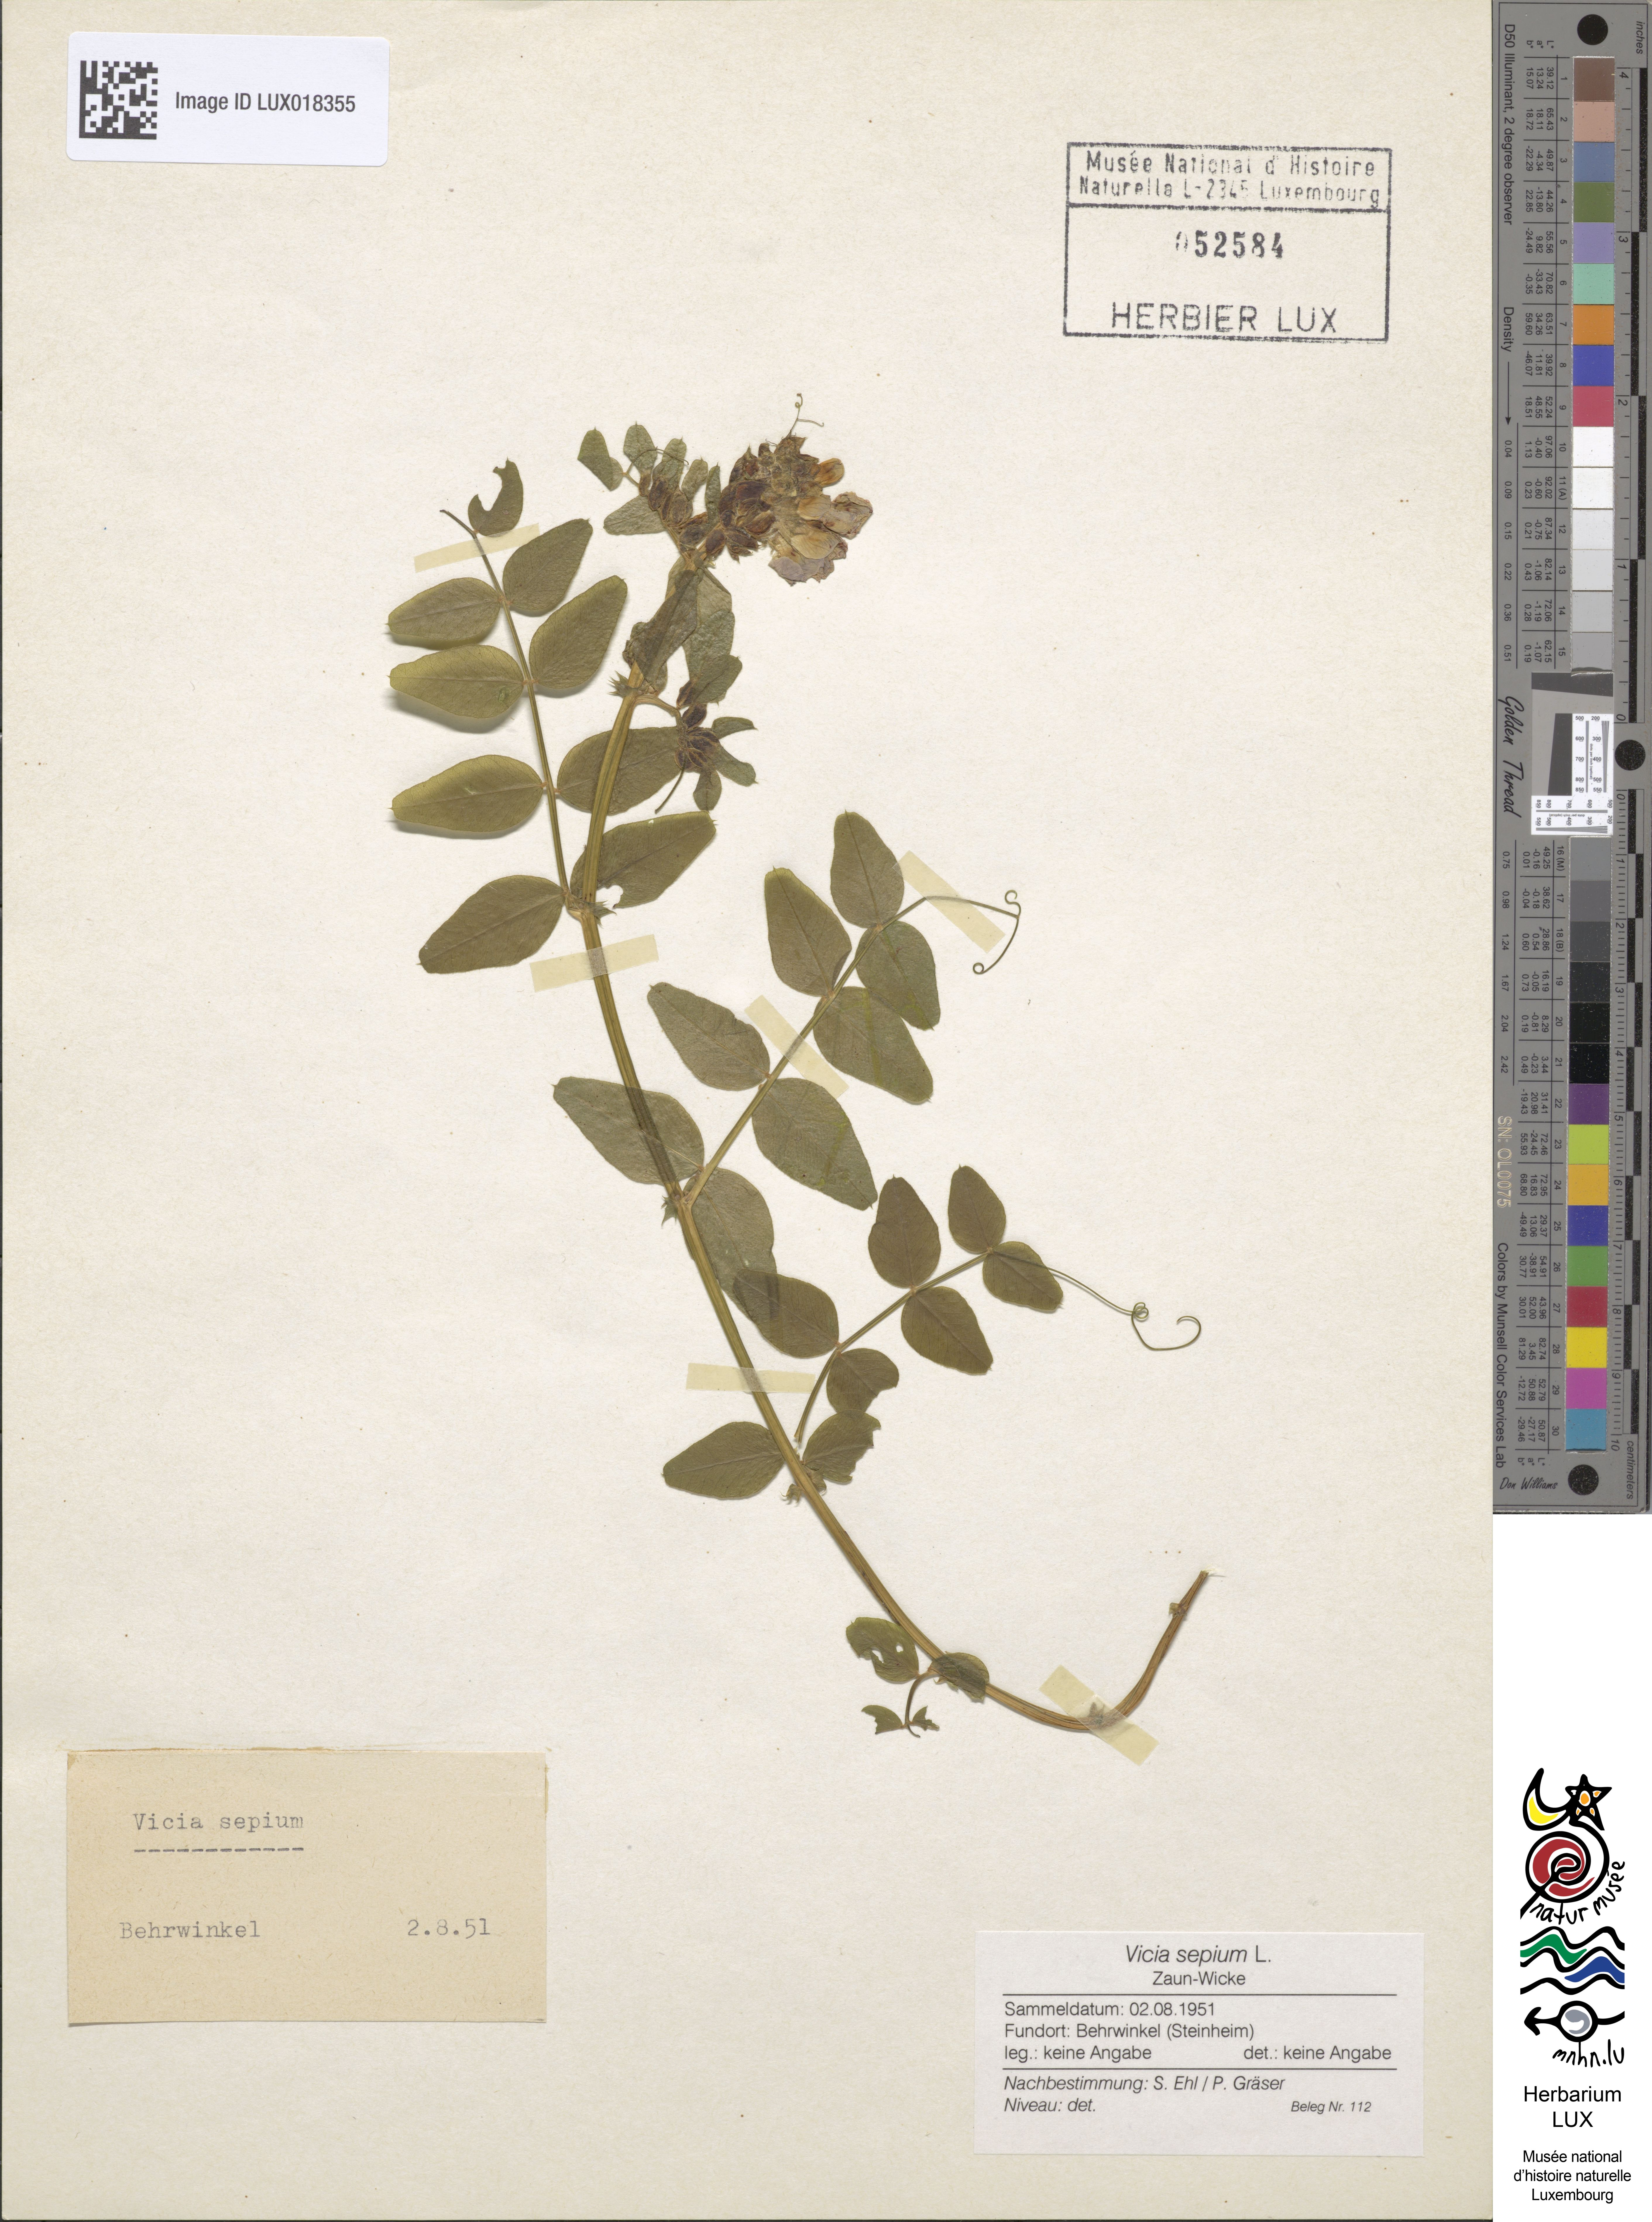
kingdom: Plantae
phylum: Tracheophyta
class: Magnoliopsida
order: Fabales
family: Fabaceae
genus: Vicia
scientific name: Vicia sepium
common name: Bush vetch
